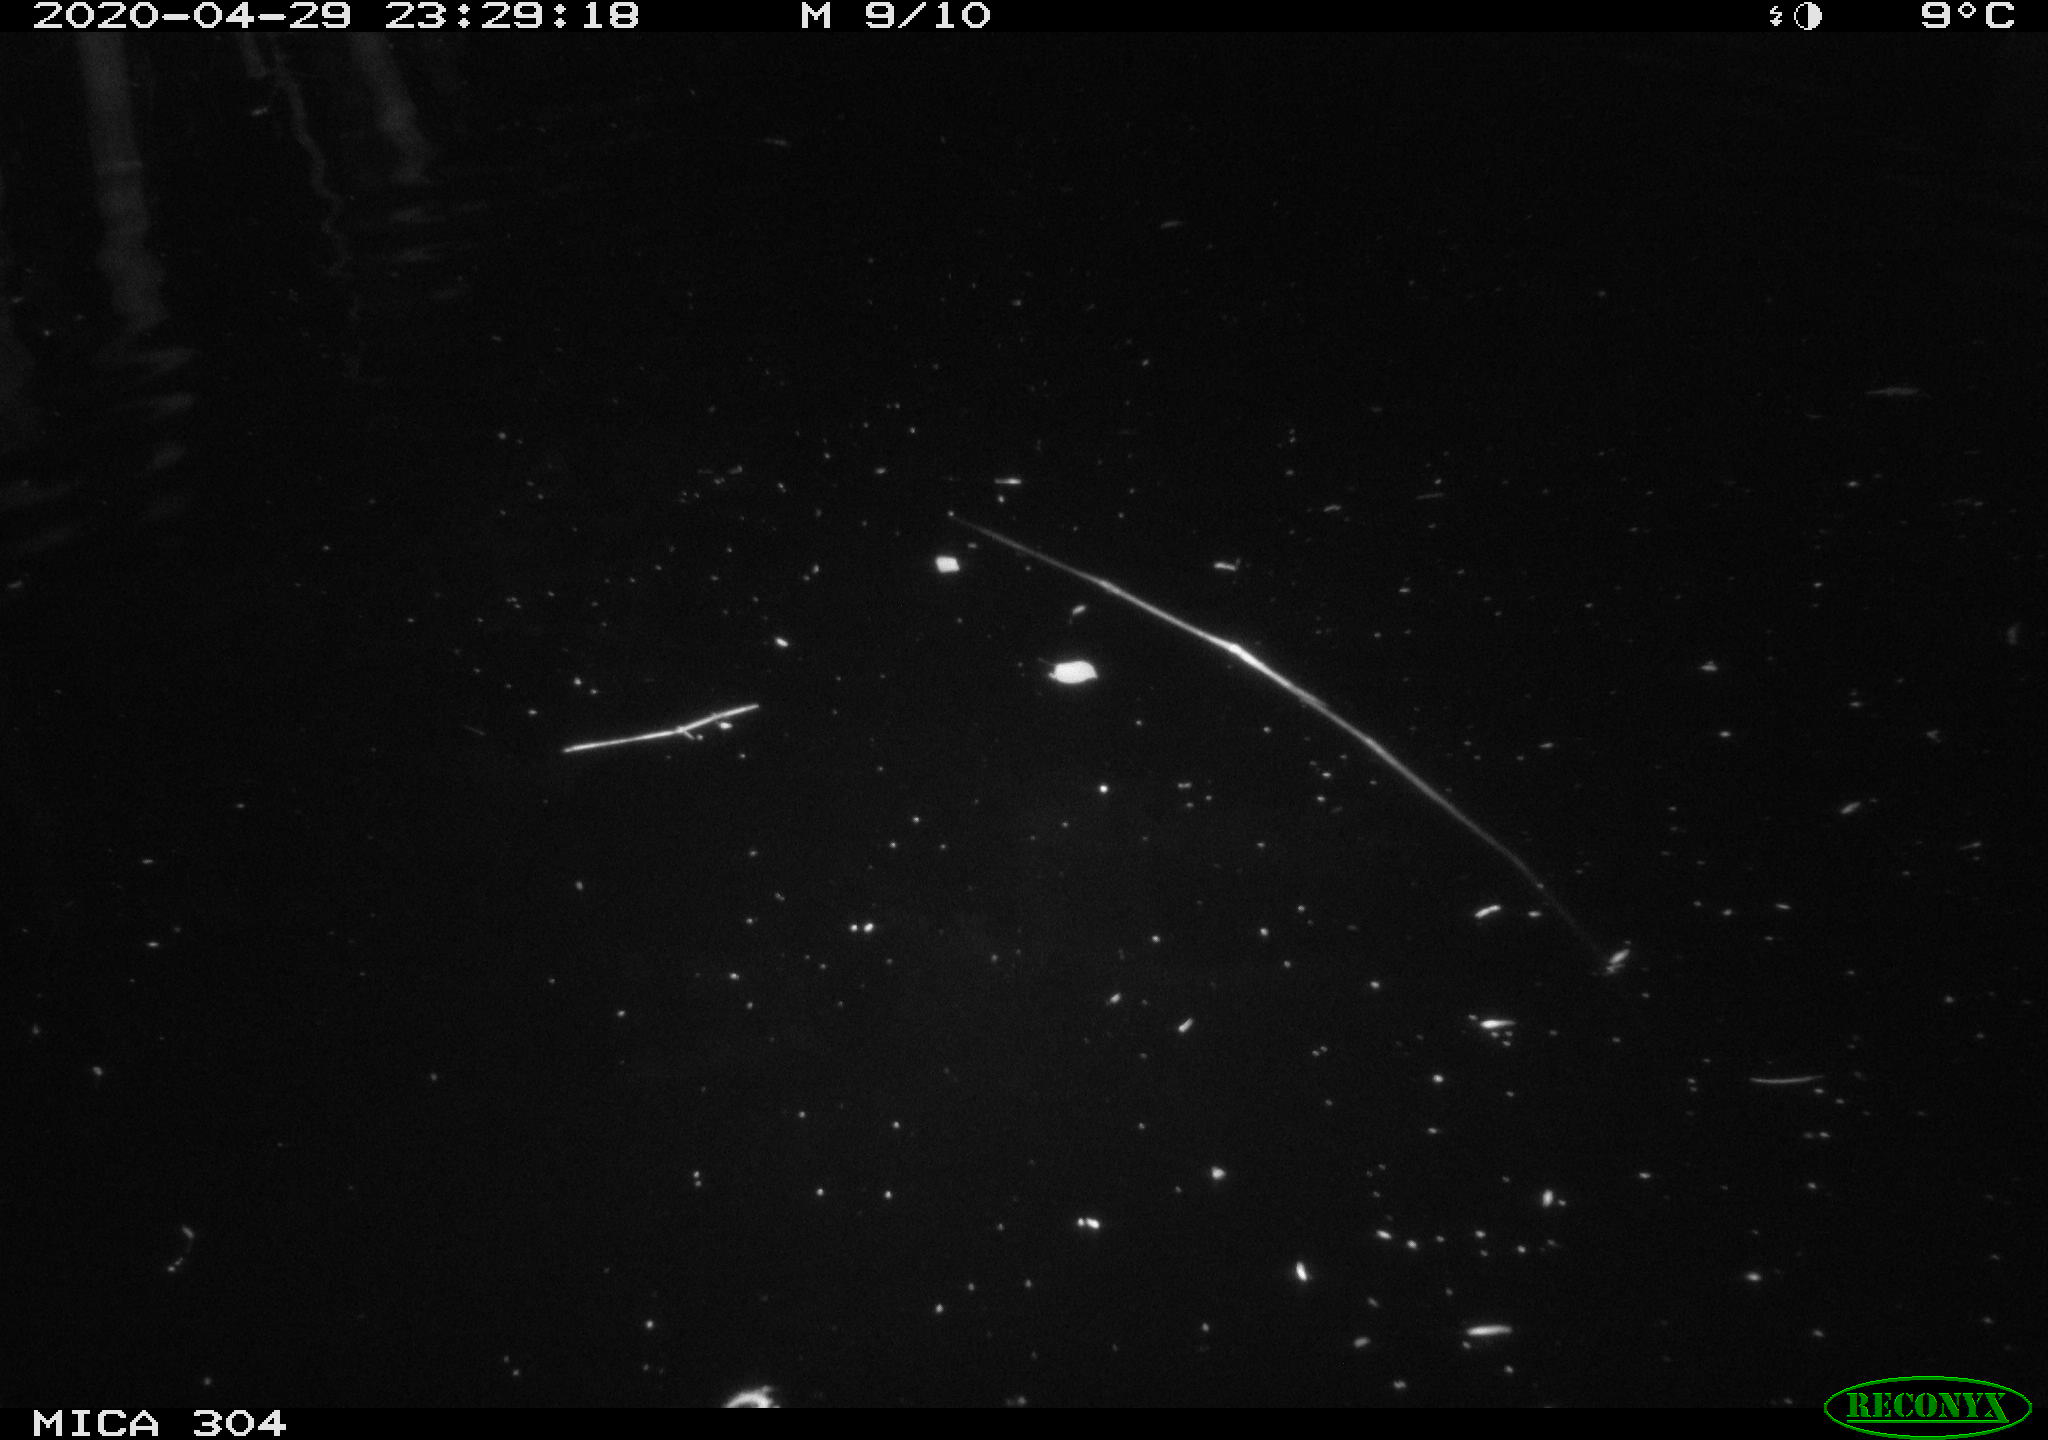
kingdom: Animalia
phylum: Chordata
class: Aves
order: Anseriformes
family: Anatidae
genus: Anas
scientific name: Anas platyrhynchos
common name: Mallard
